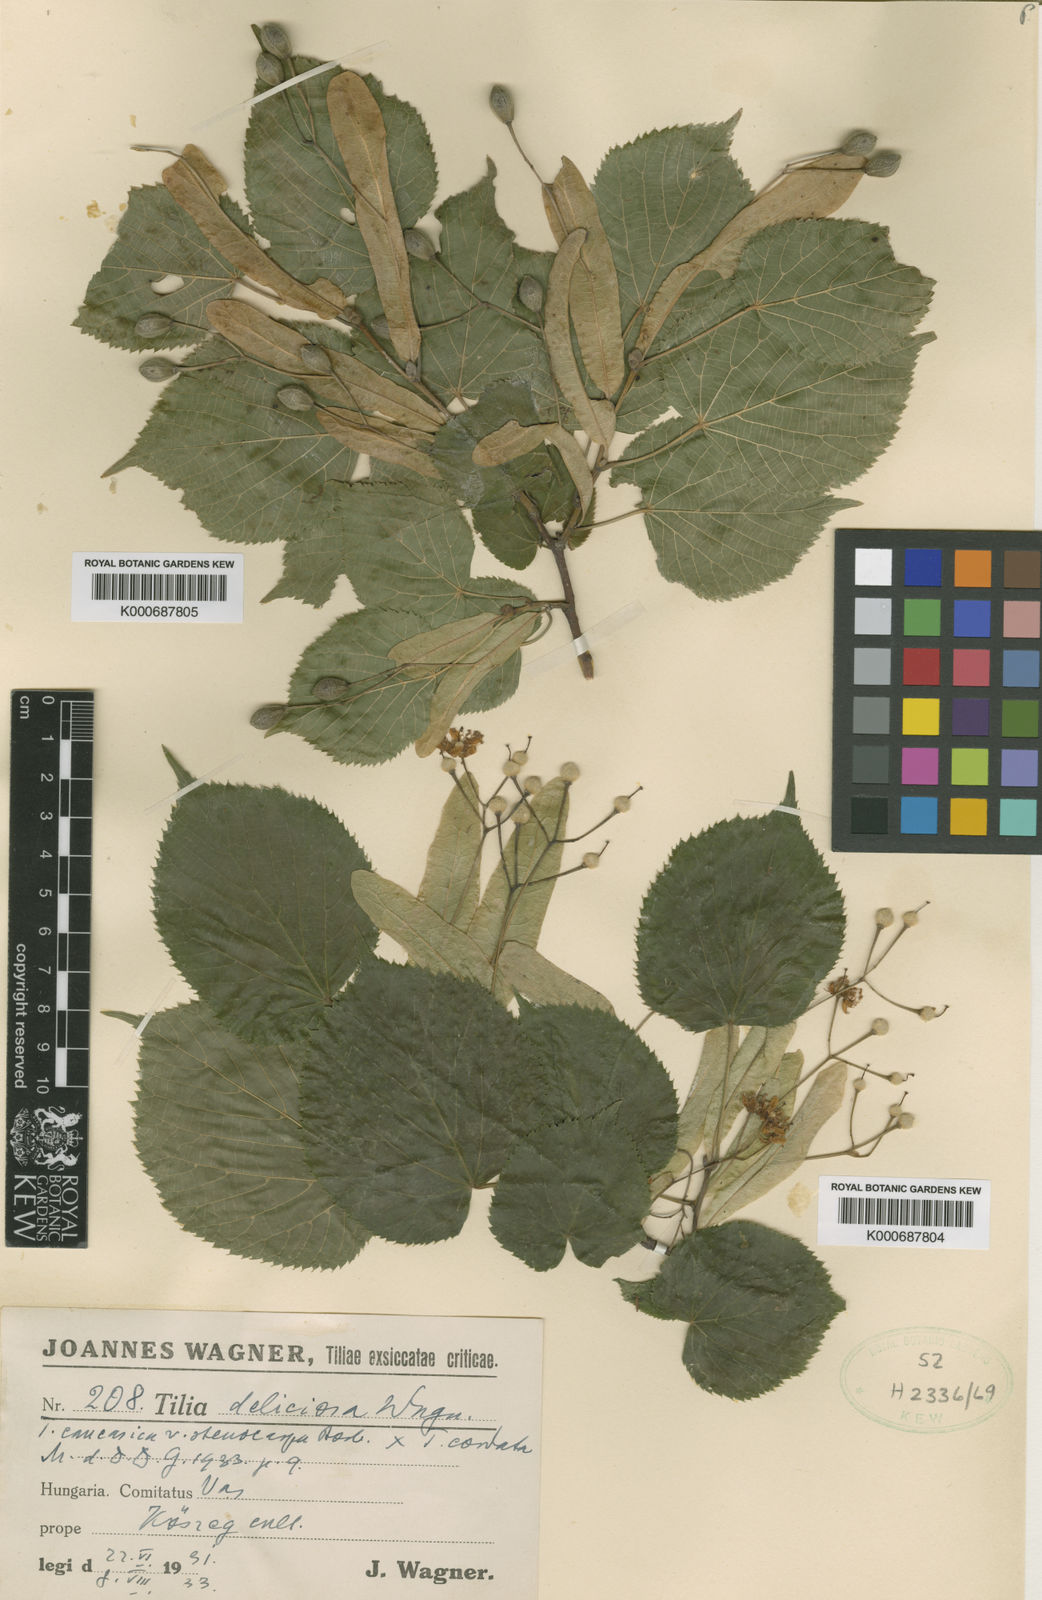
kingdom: Plantae
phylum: Tracheophyta
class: Magnoliopsida
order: Malvales
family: Malvaceae
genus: Tilia
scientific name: Tilia
